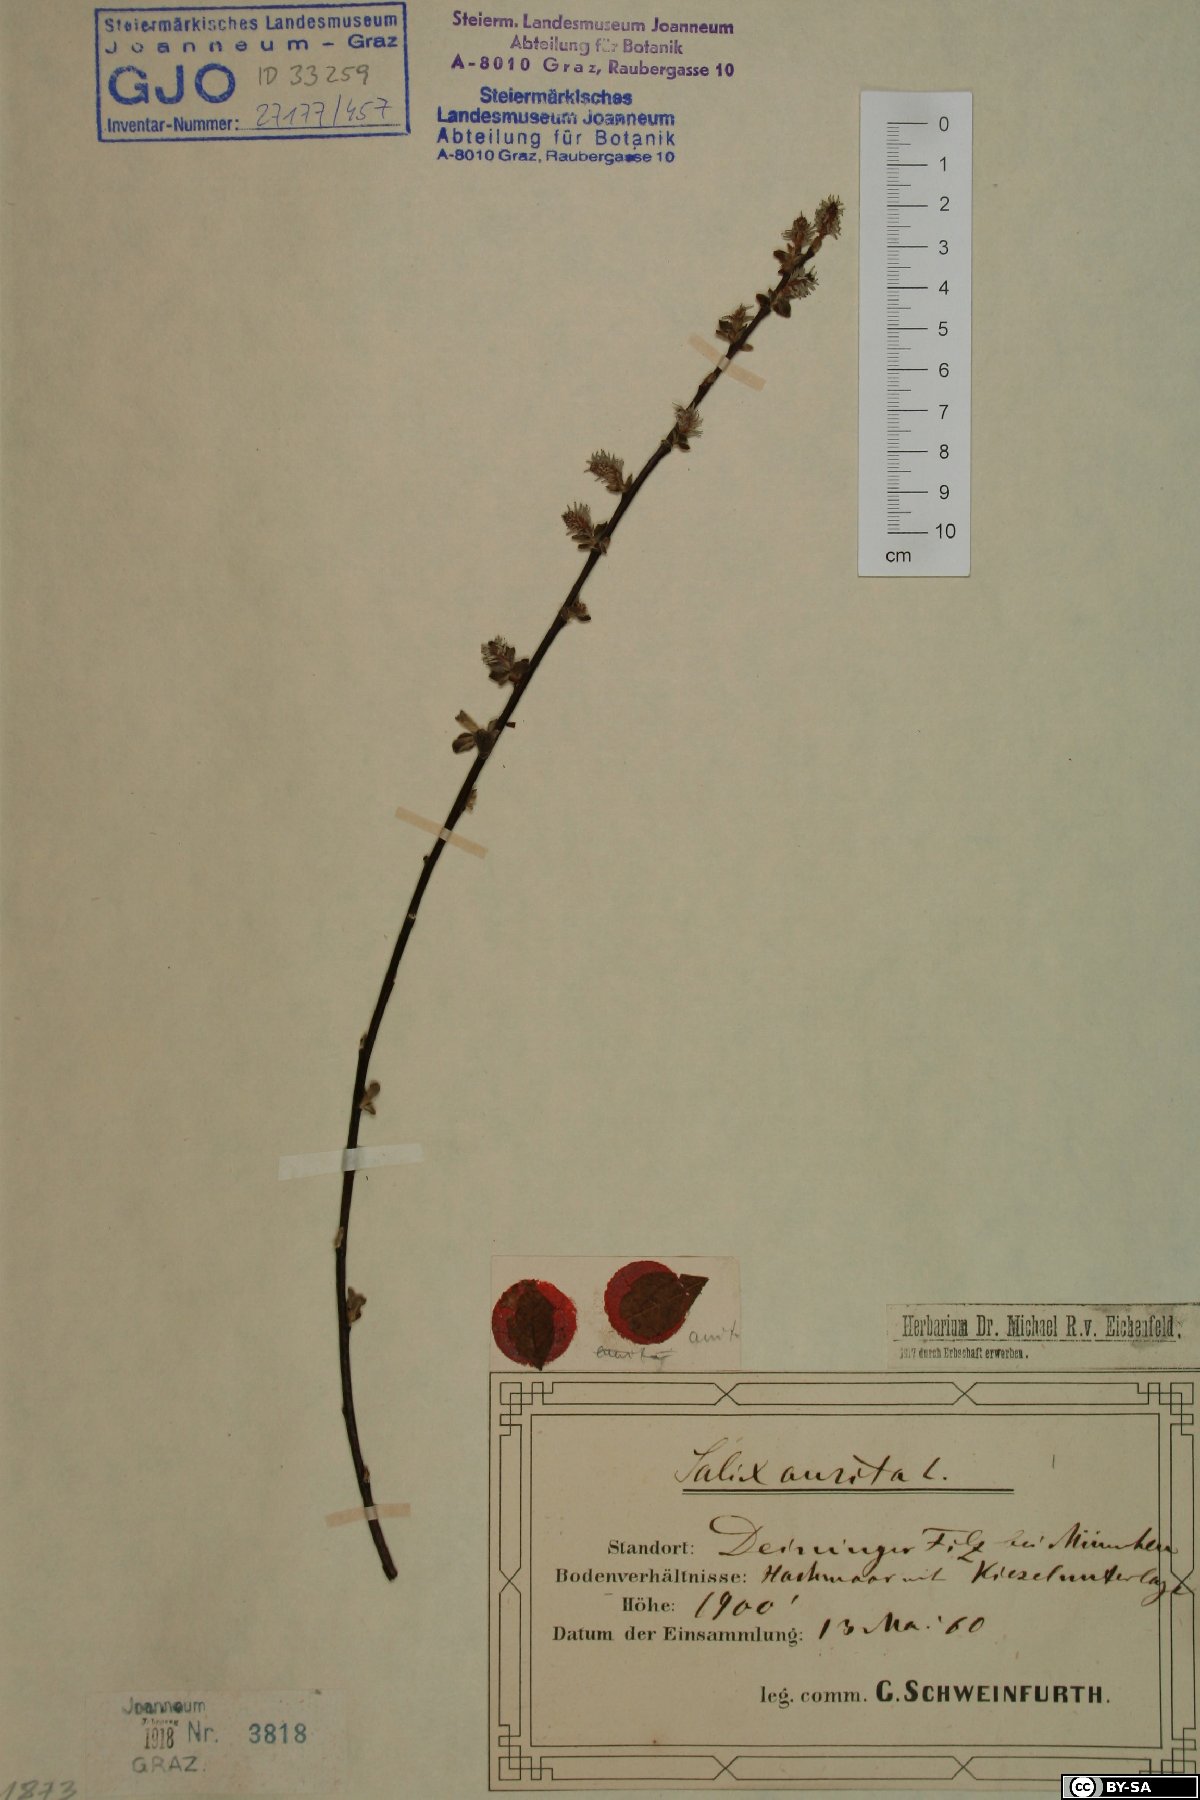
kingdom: Plantae
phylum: Tracheophyta
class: Magnoliopsida
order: Malpighiales
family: Salicaceae
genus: Salix
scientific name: Salix aurita
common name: Eared willow
